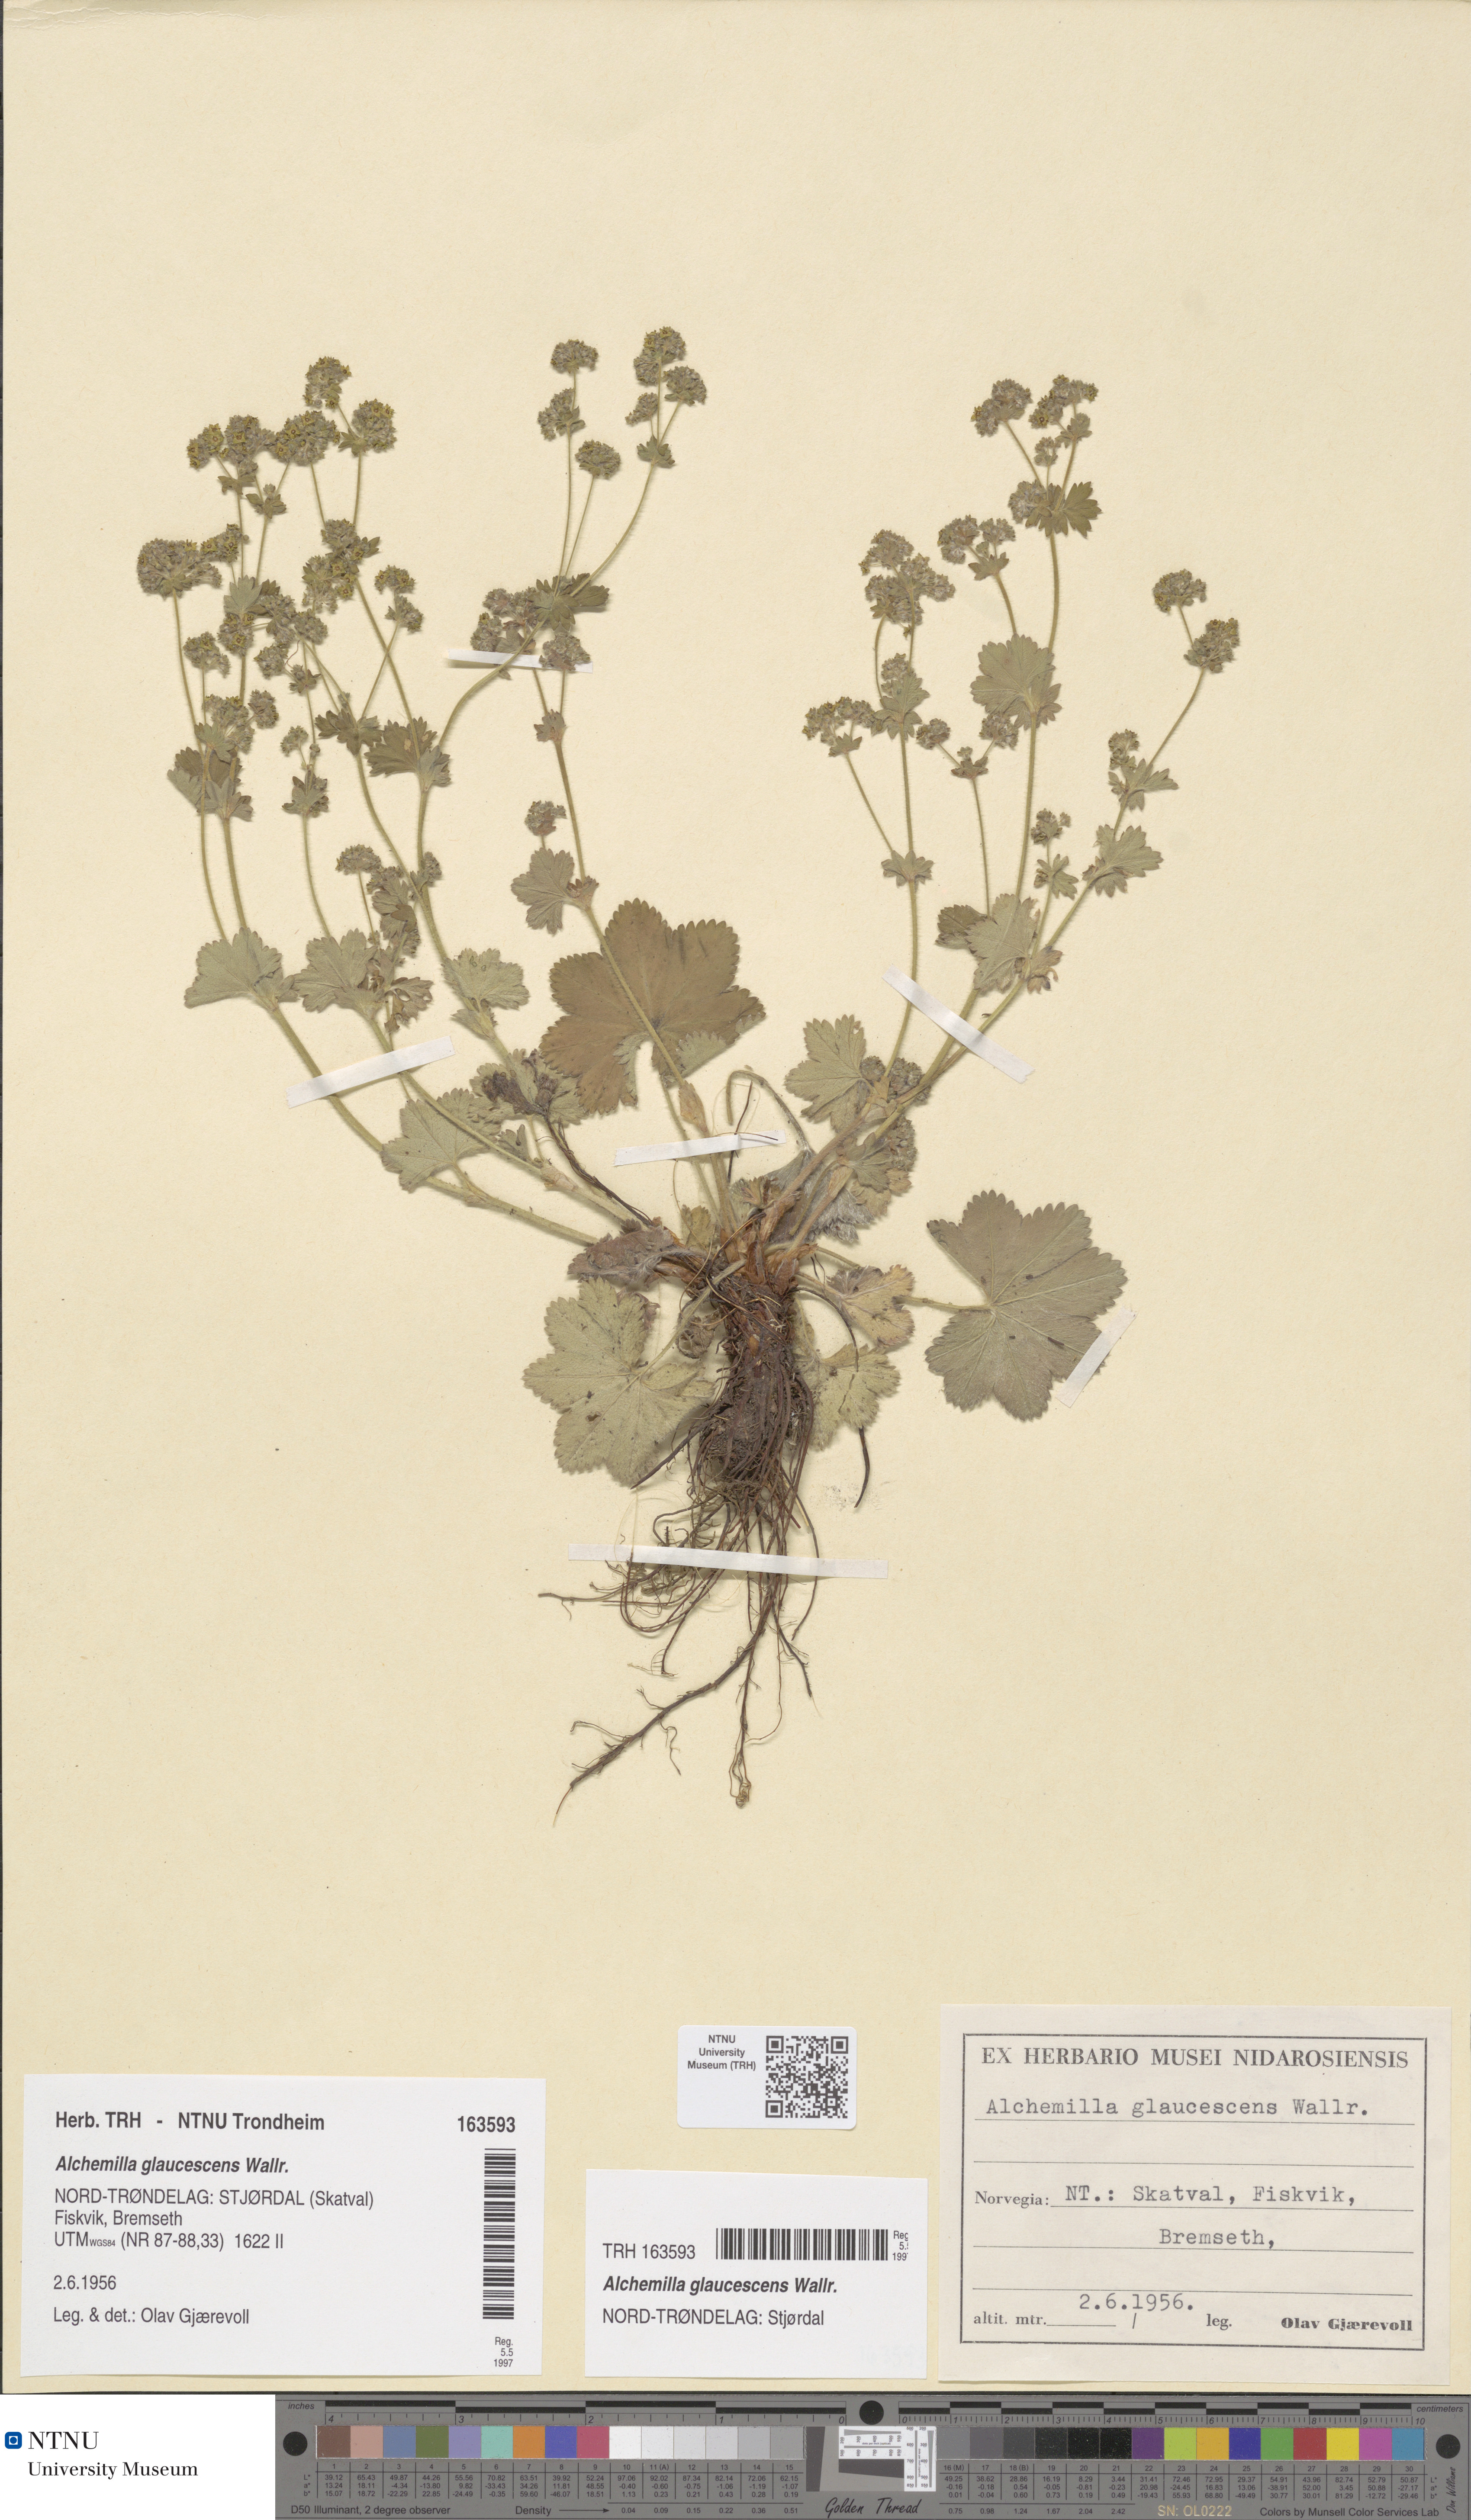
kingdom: Plantae
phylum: Tracheophyta
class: Magnoliopsida
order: Rosales
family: Rosaceae
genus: Alchemilla
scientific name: Alchemilla glaucescens
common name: Silky lady's mantle
